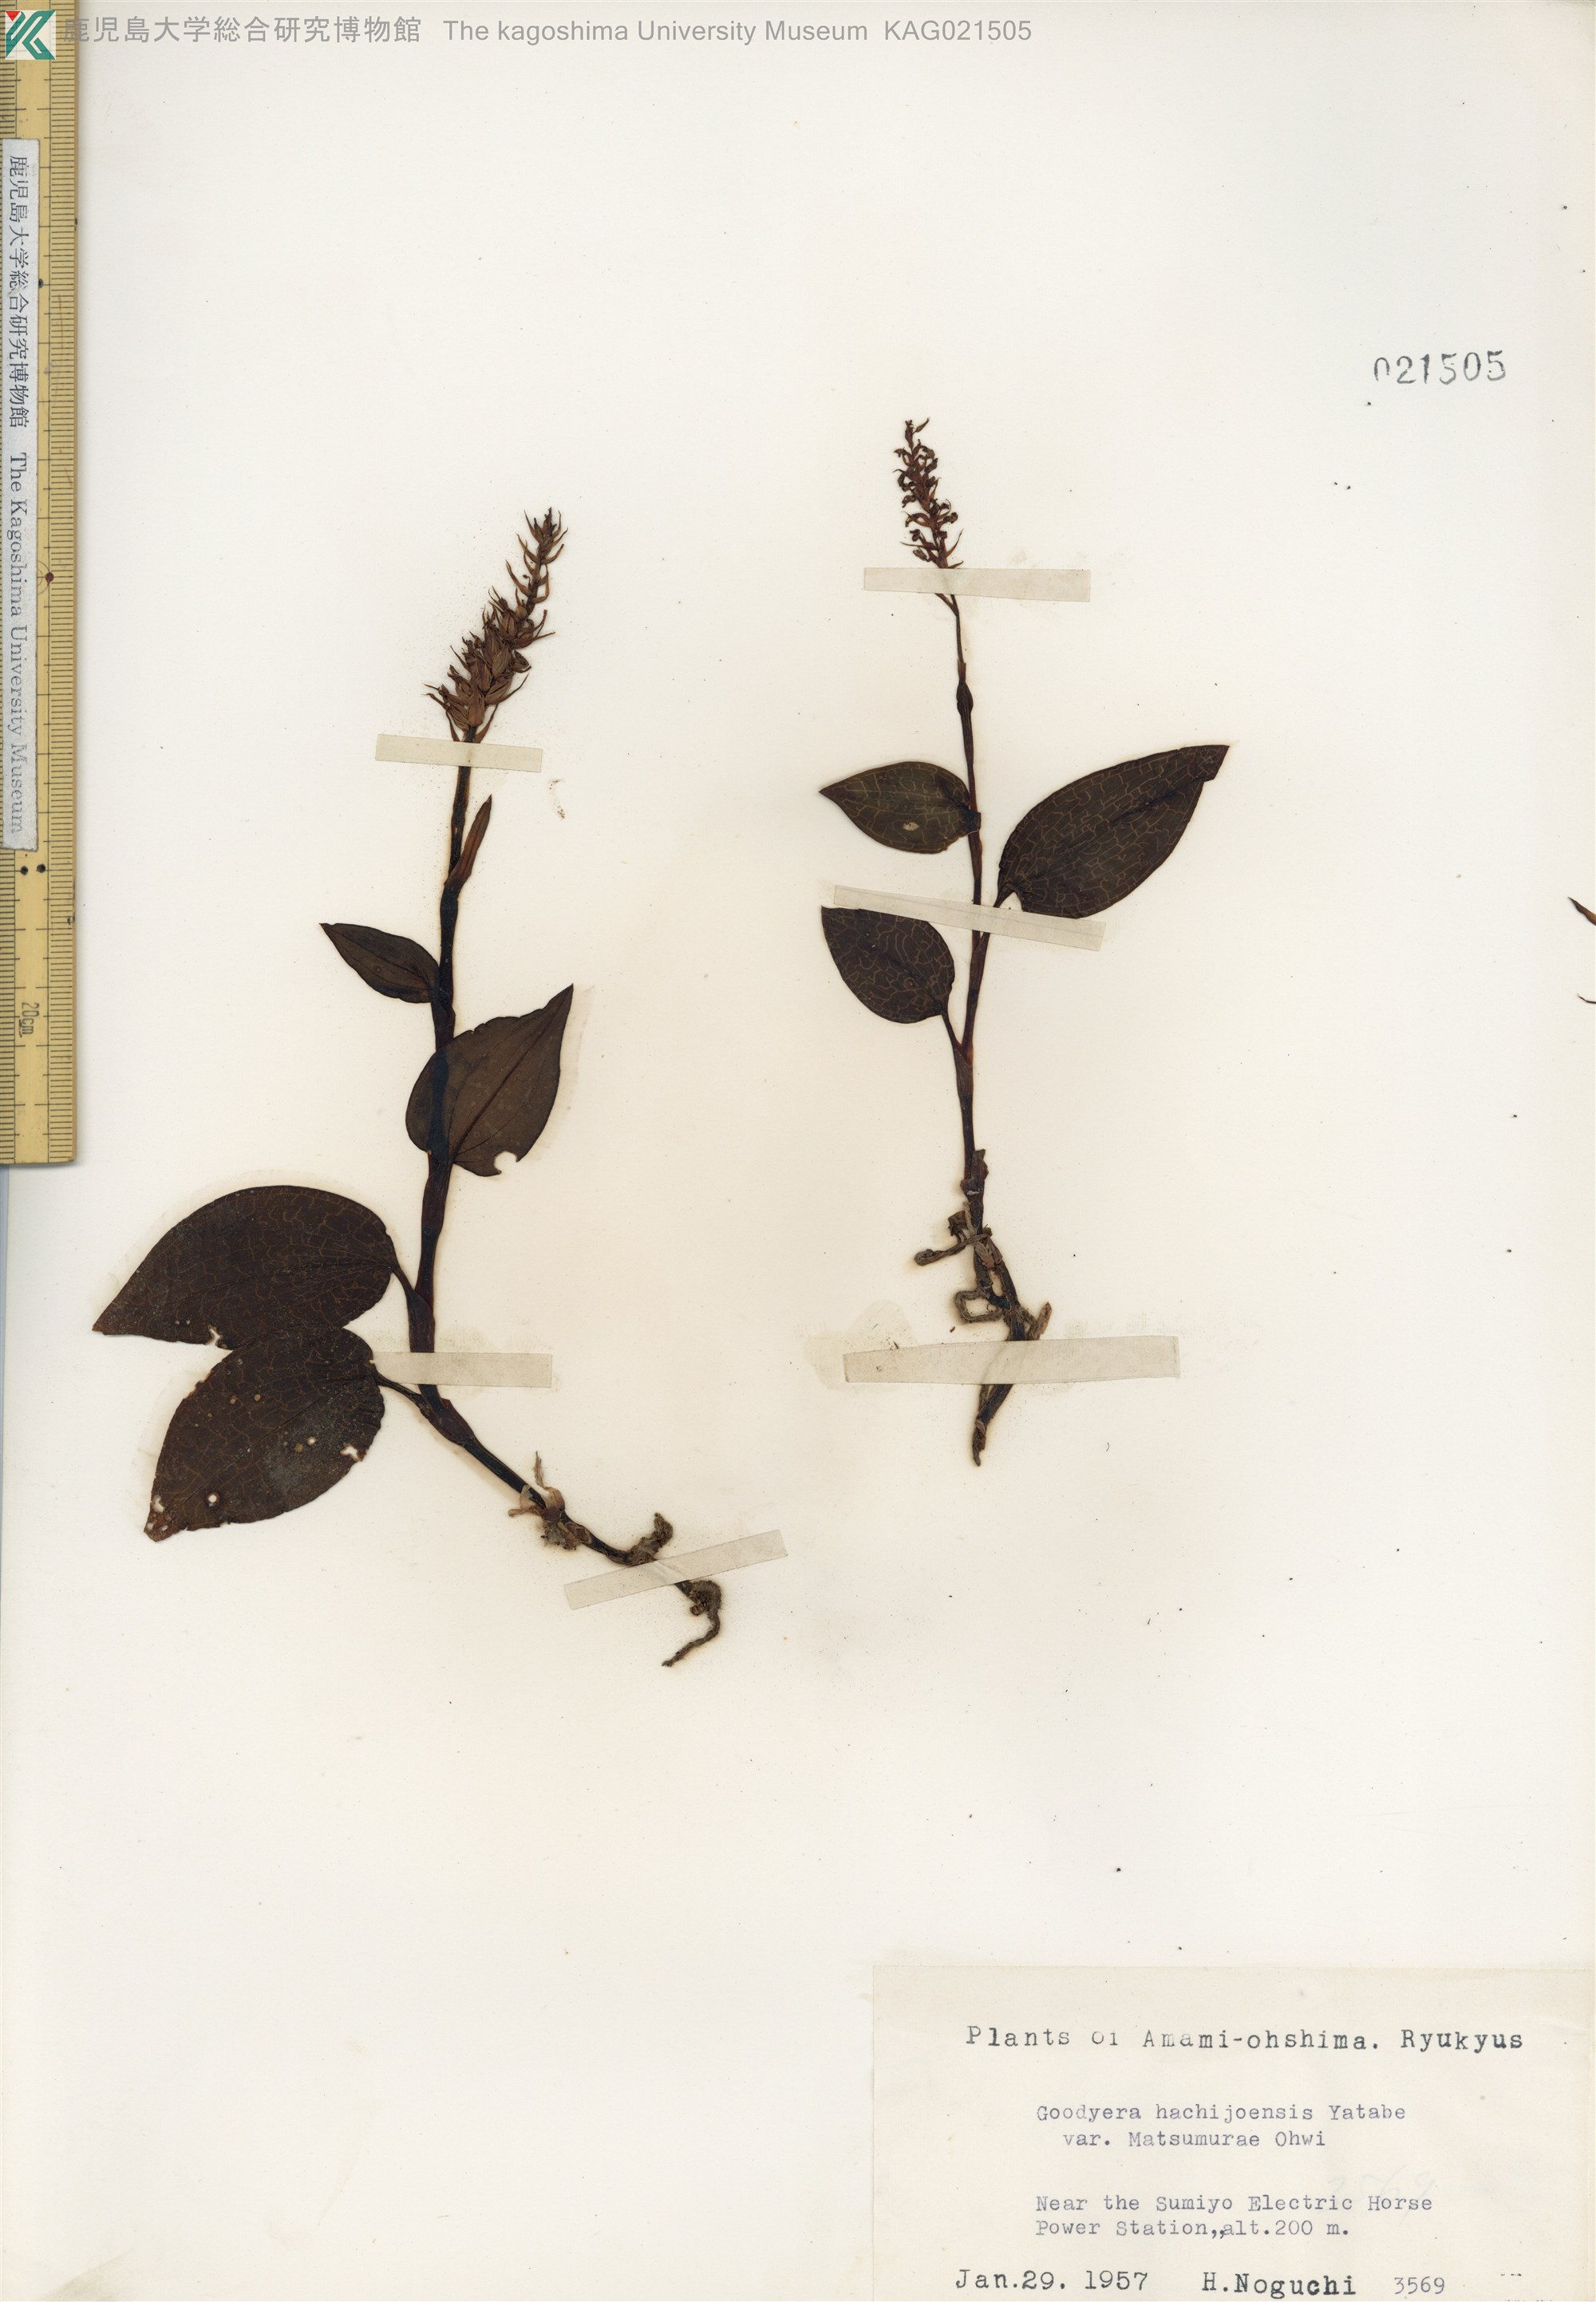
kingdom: Plantae
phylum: Tracheophyta
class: Liliopsida
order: Asparagales
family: Orchidaceae
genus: Goodyera
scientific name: Goodyera hachijoensis
